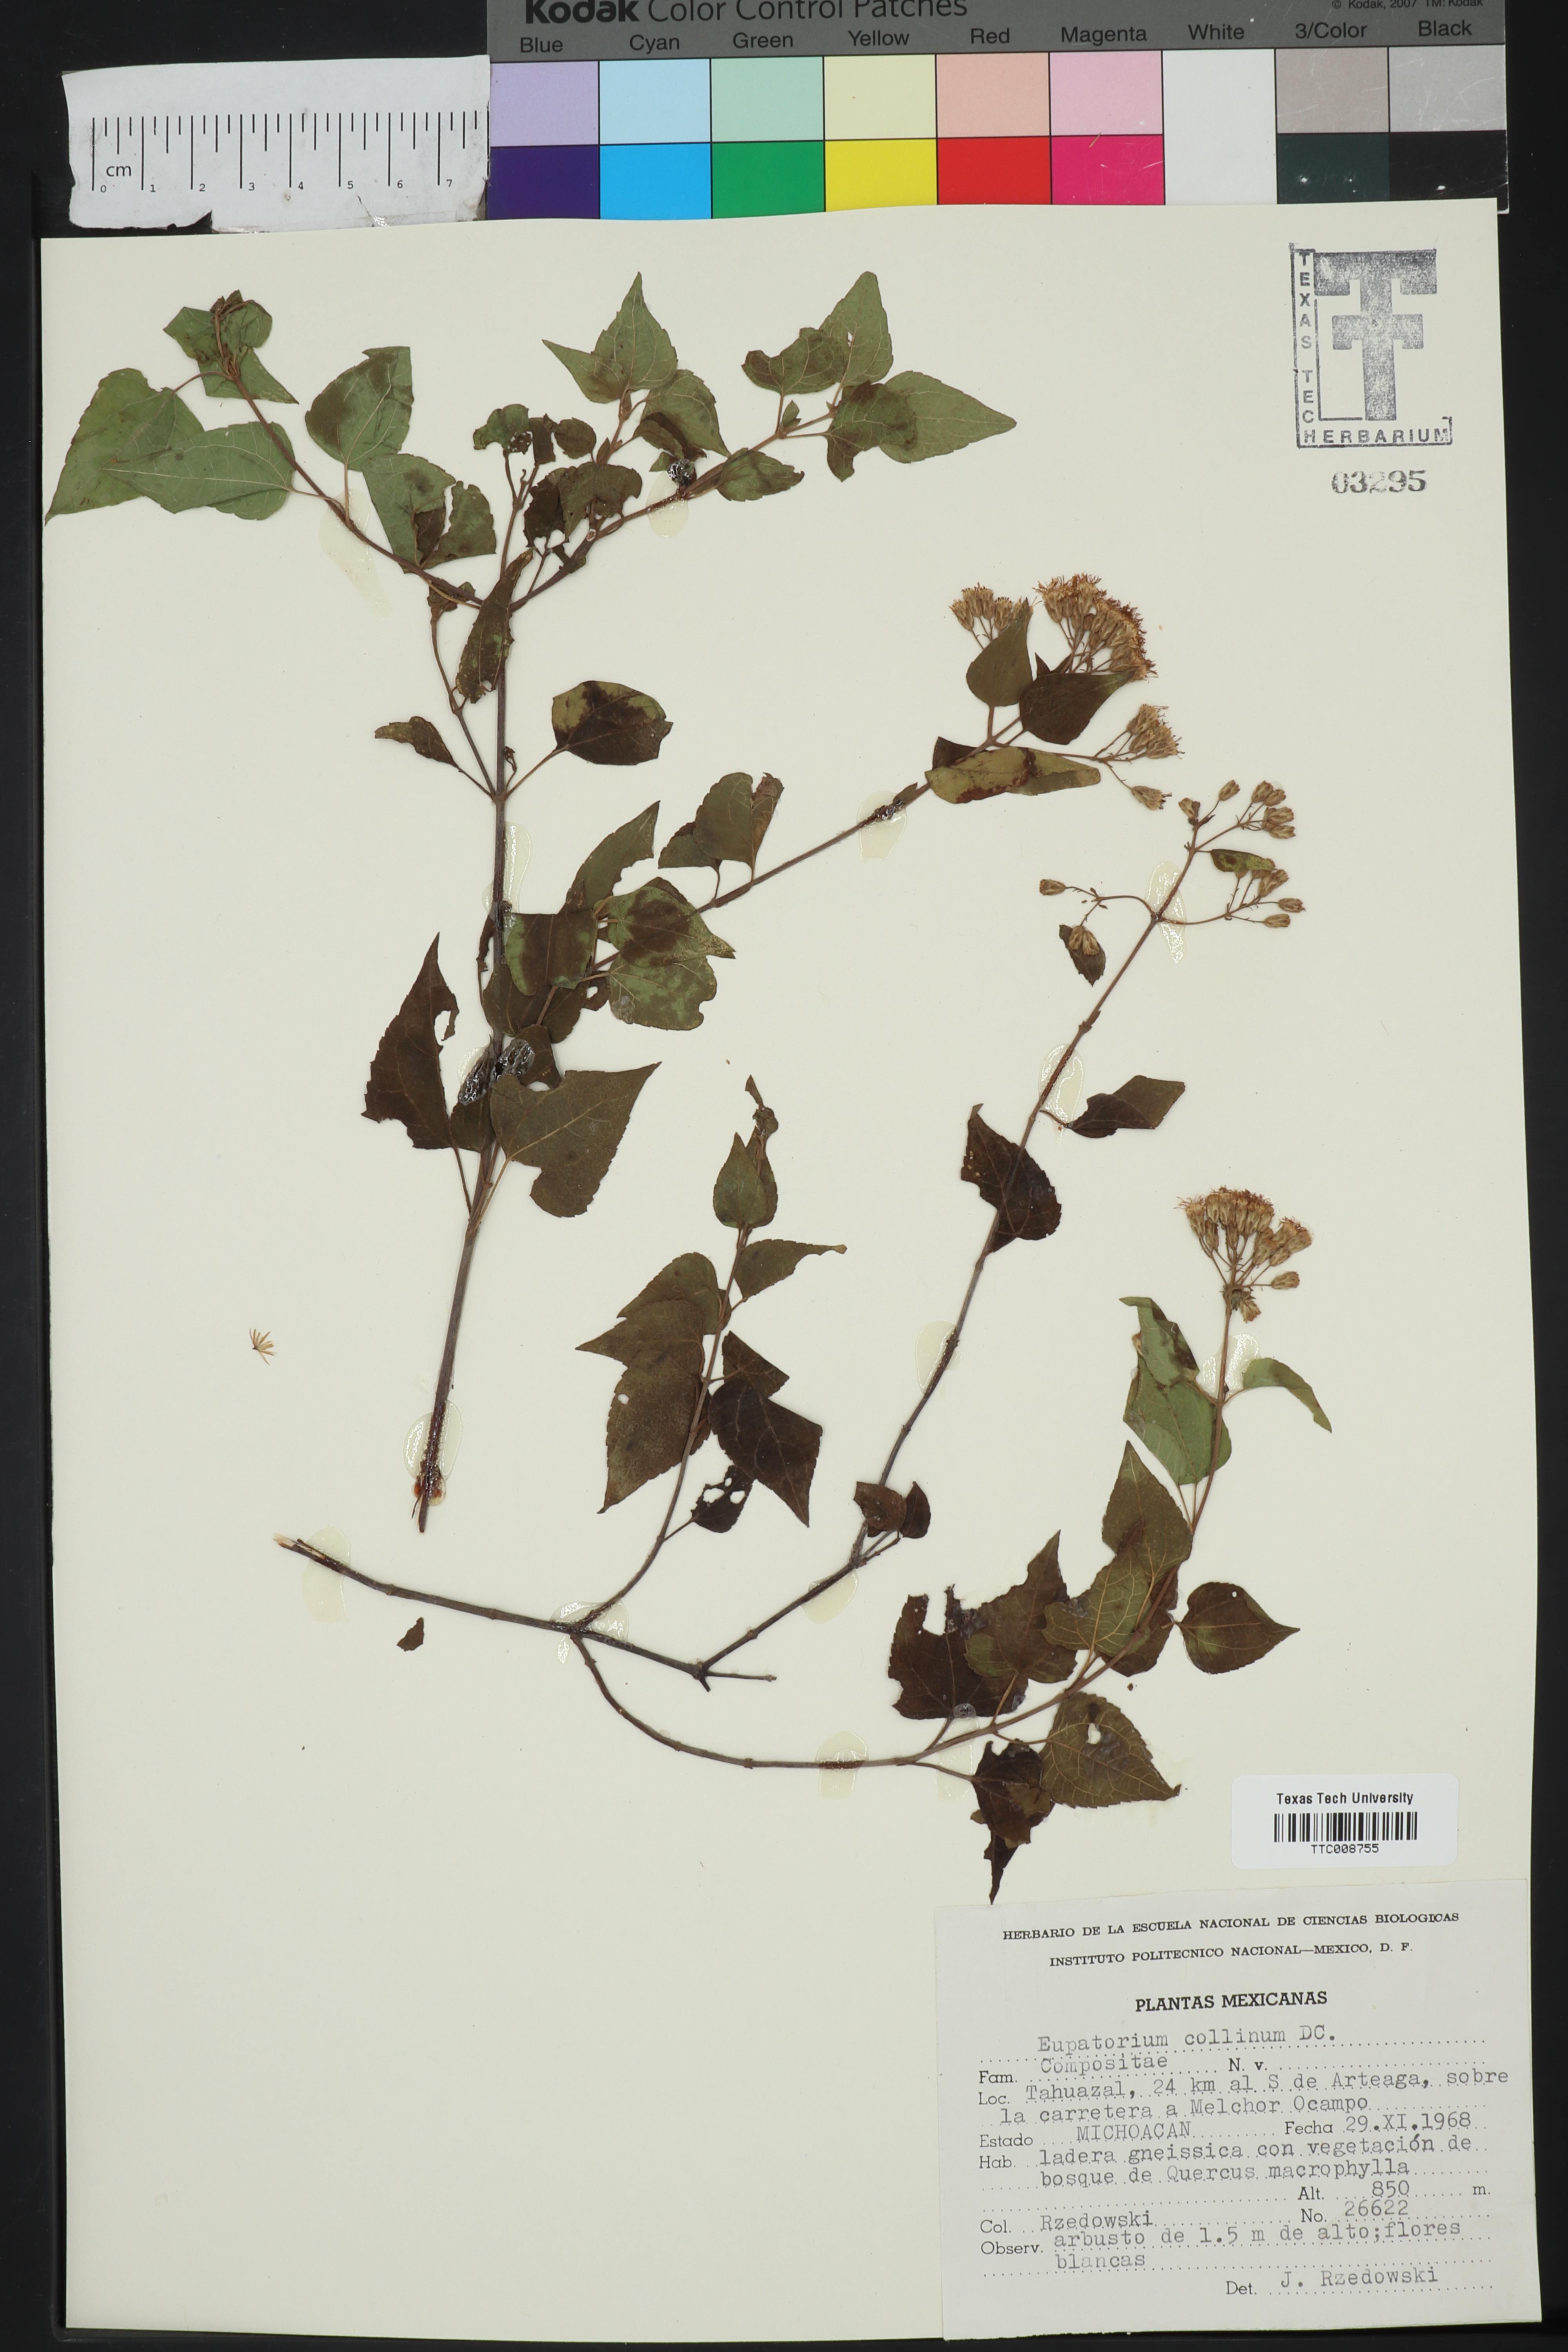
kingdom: Plantae
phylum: Tracheophyta
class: Magnoliopsida
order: Asterales
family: Asteraceae
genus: Chromolaena
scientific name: Chromolaena collina
